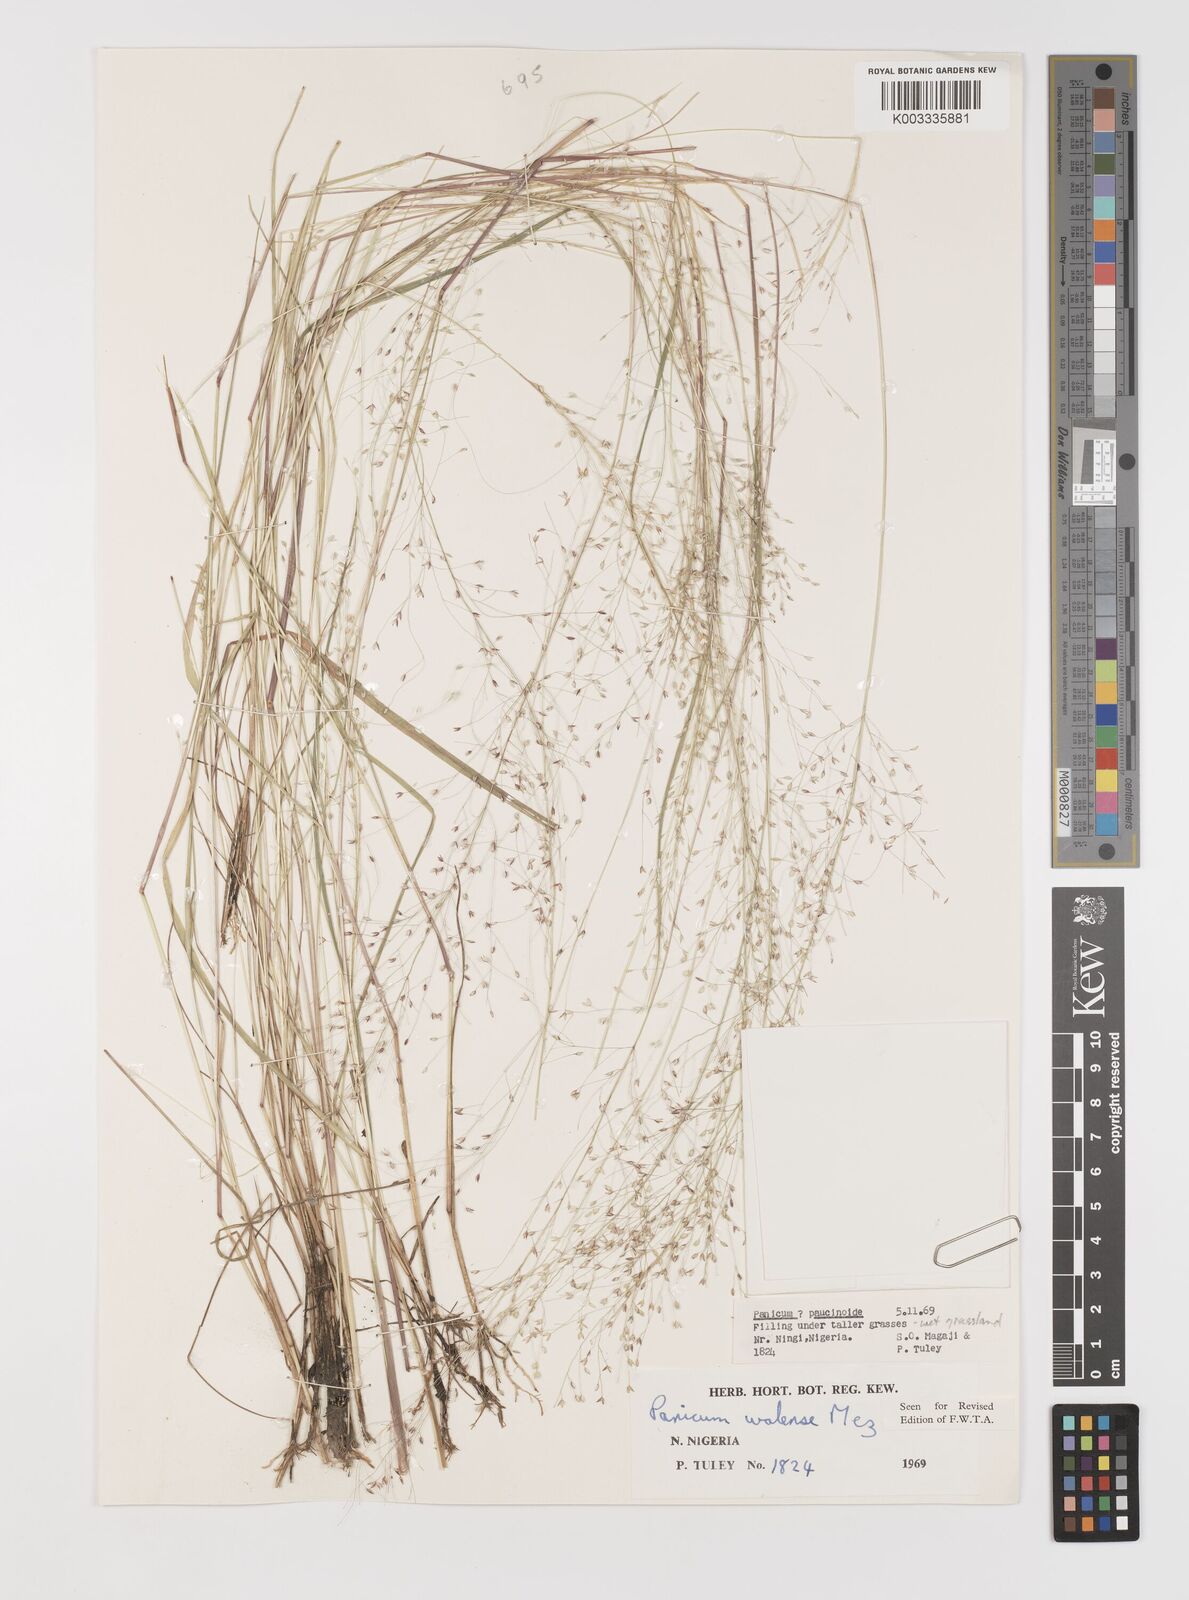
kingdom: Plantae
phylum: Tracheophyta
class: Liliopsida
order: Poales
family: Poaceae
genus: Panicum
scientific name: Panicum paucinode
